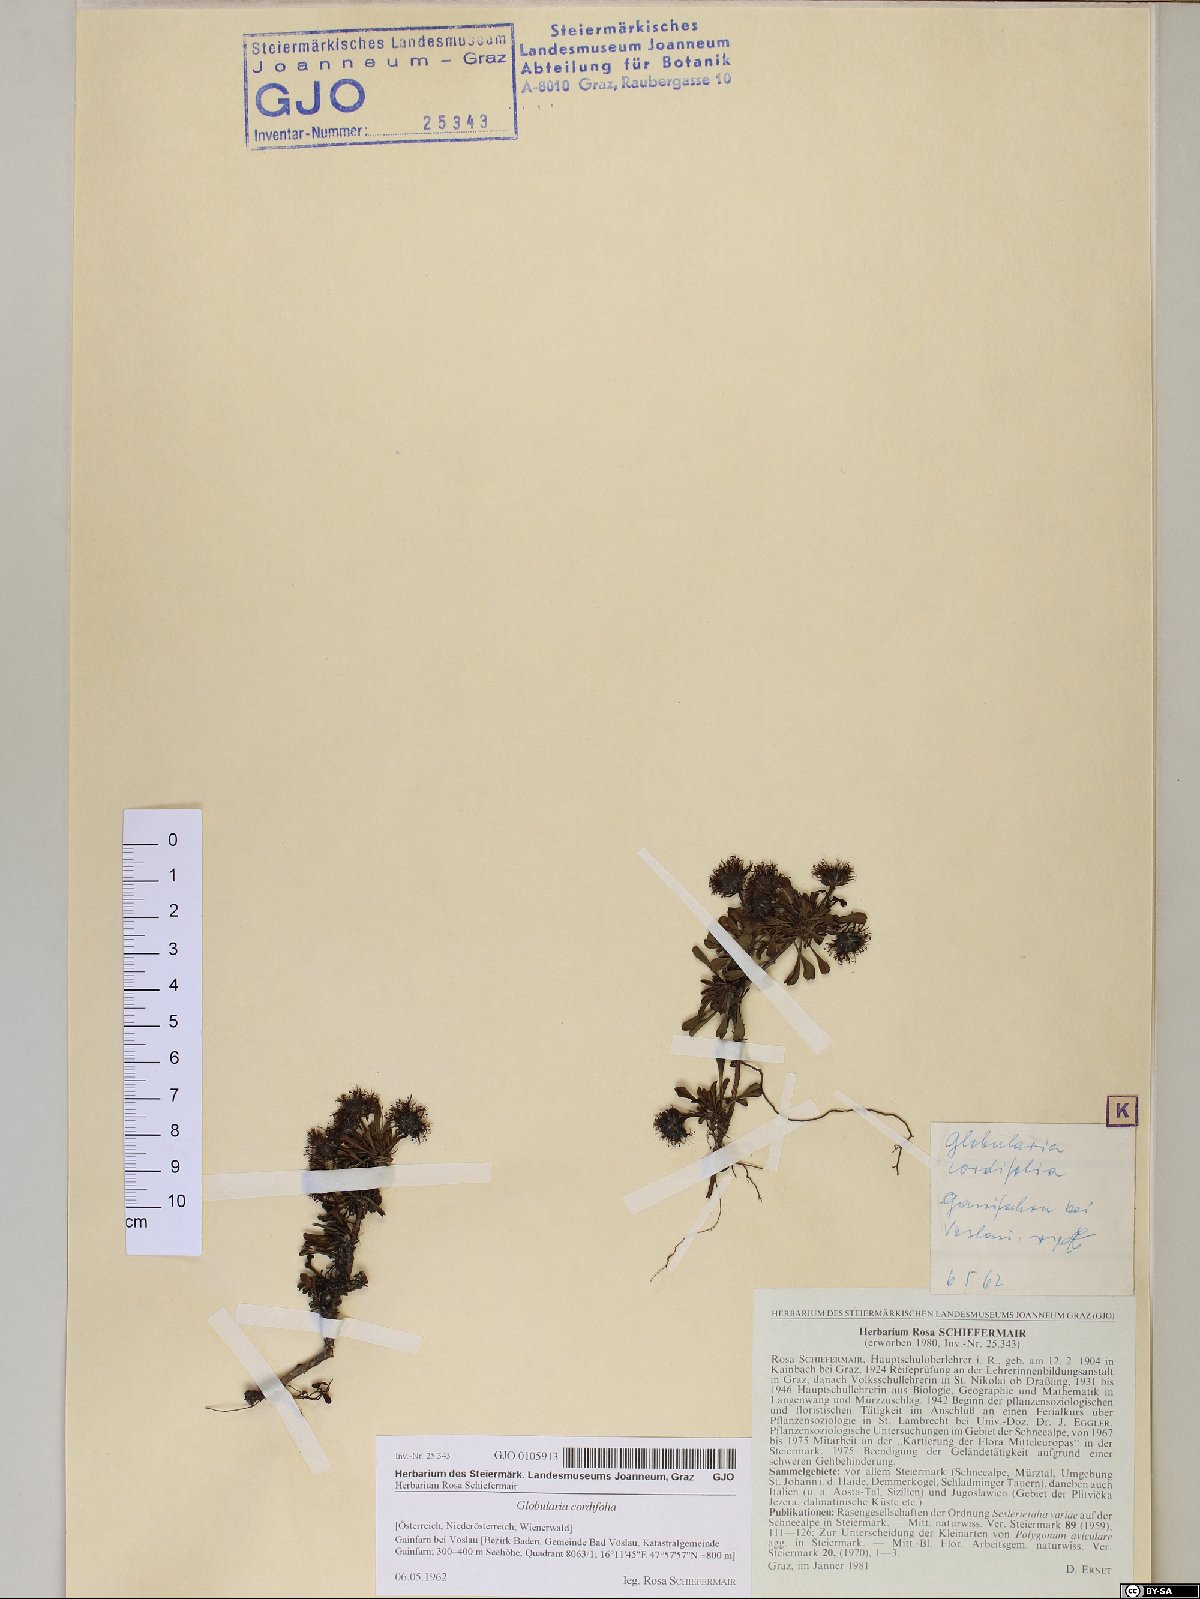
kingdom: Plantae
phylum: Tracheophyta
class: Magnoliopsida
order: Lamiales
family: Plantaginaceae
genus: Globularia
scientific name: Globularia cordifolia
